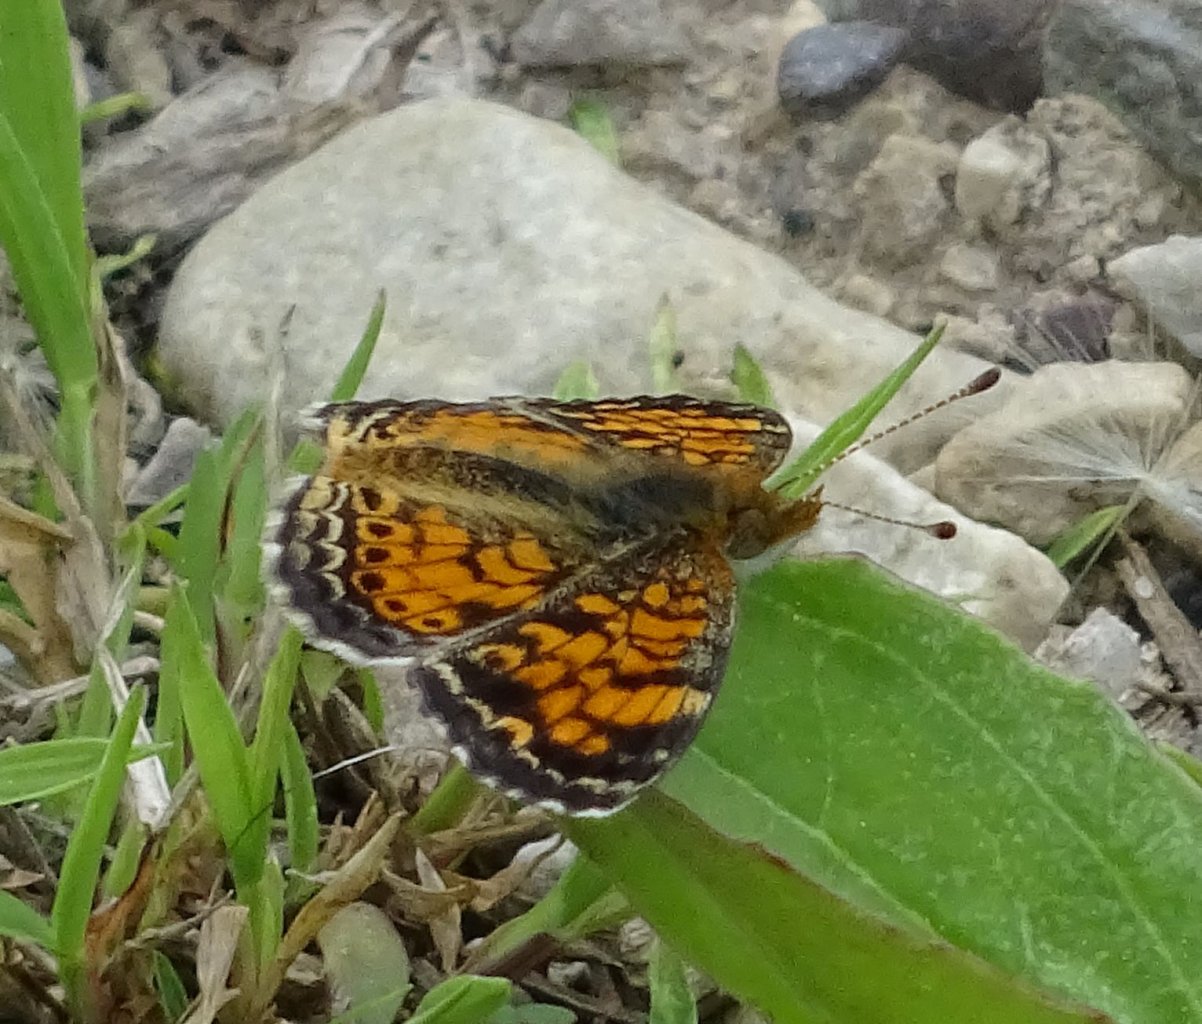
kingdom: Animalia
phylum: Arthropoda
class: Insecta
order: Lepidoptera
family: Nymphalidae
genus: Phyciodes
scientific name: Phyciodes tharos
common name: Pearl Crescent
